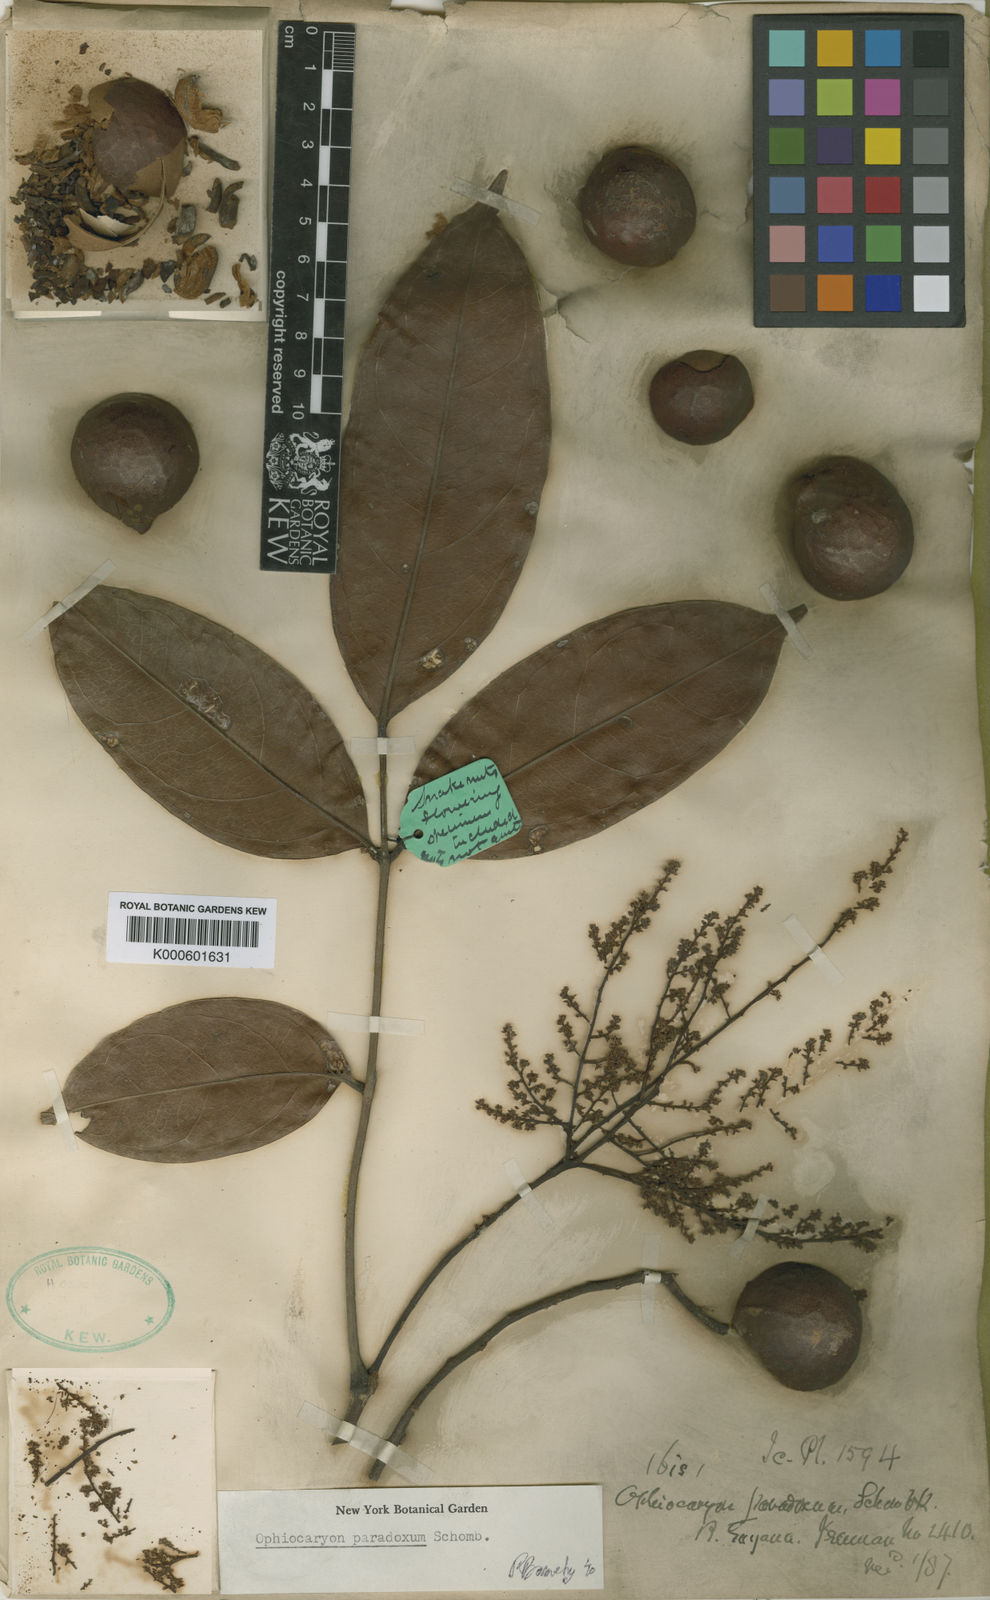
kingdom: Plantae
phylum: Tracheophyta
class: Magnoliopsida
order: Proteales
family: Sabiaceae
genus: Ophiocaryon
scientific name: Ophiocaryon paradoxum
